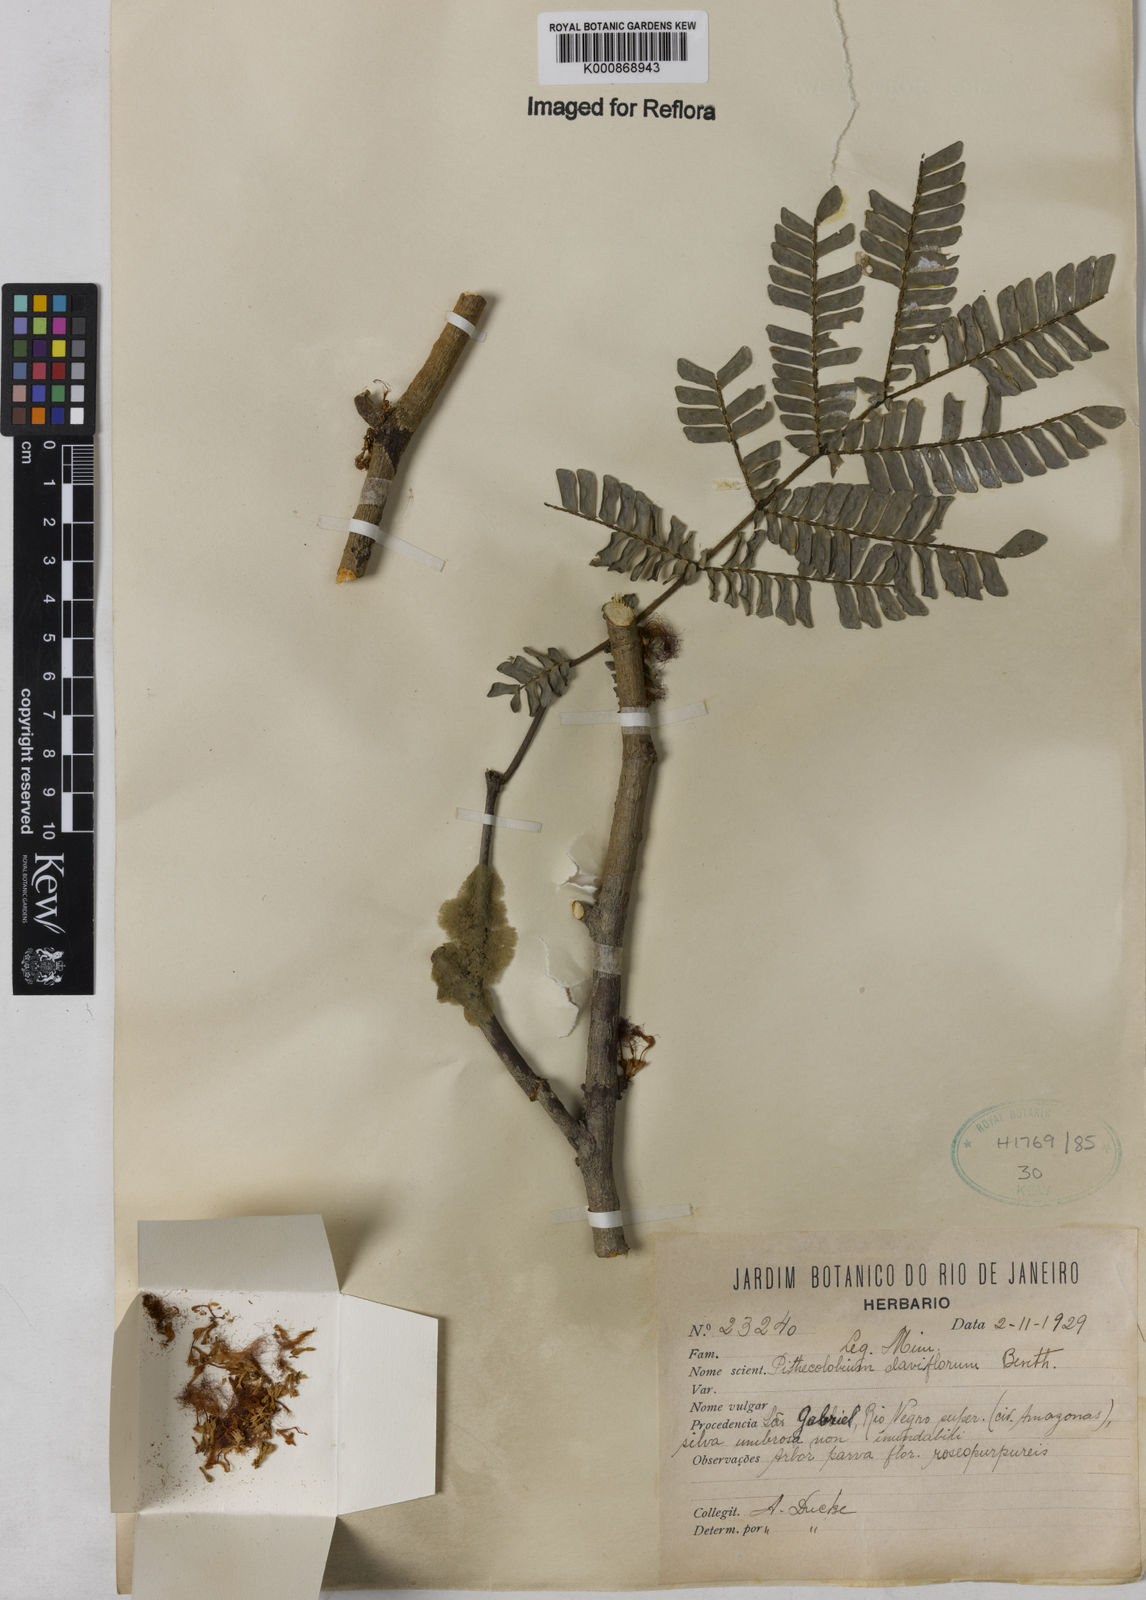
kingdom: Plantae
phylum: Tracheophyta
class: Magnoliopsida
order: Fabales
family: Fabaceae
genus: Zygia
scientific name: Zygia claviflora
